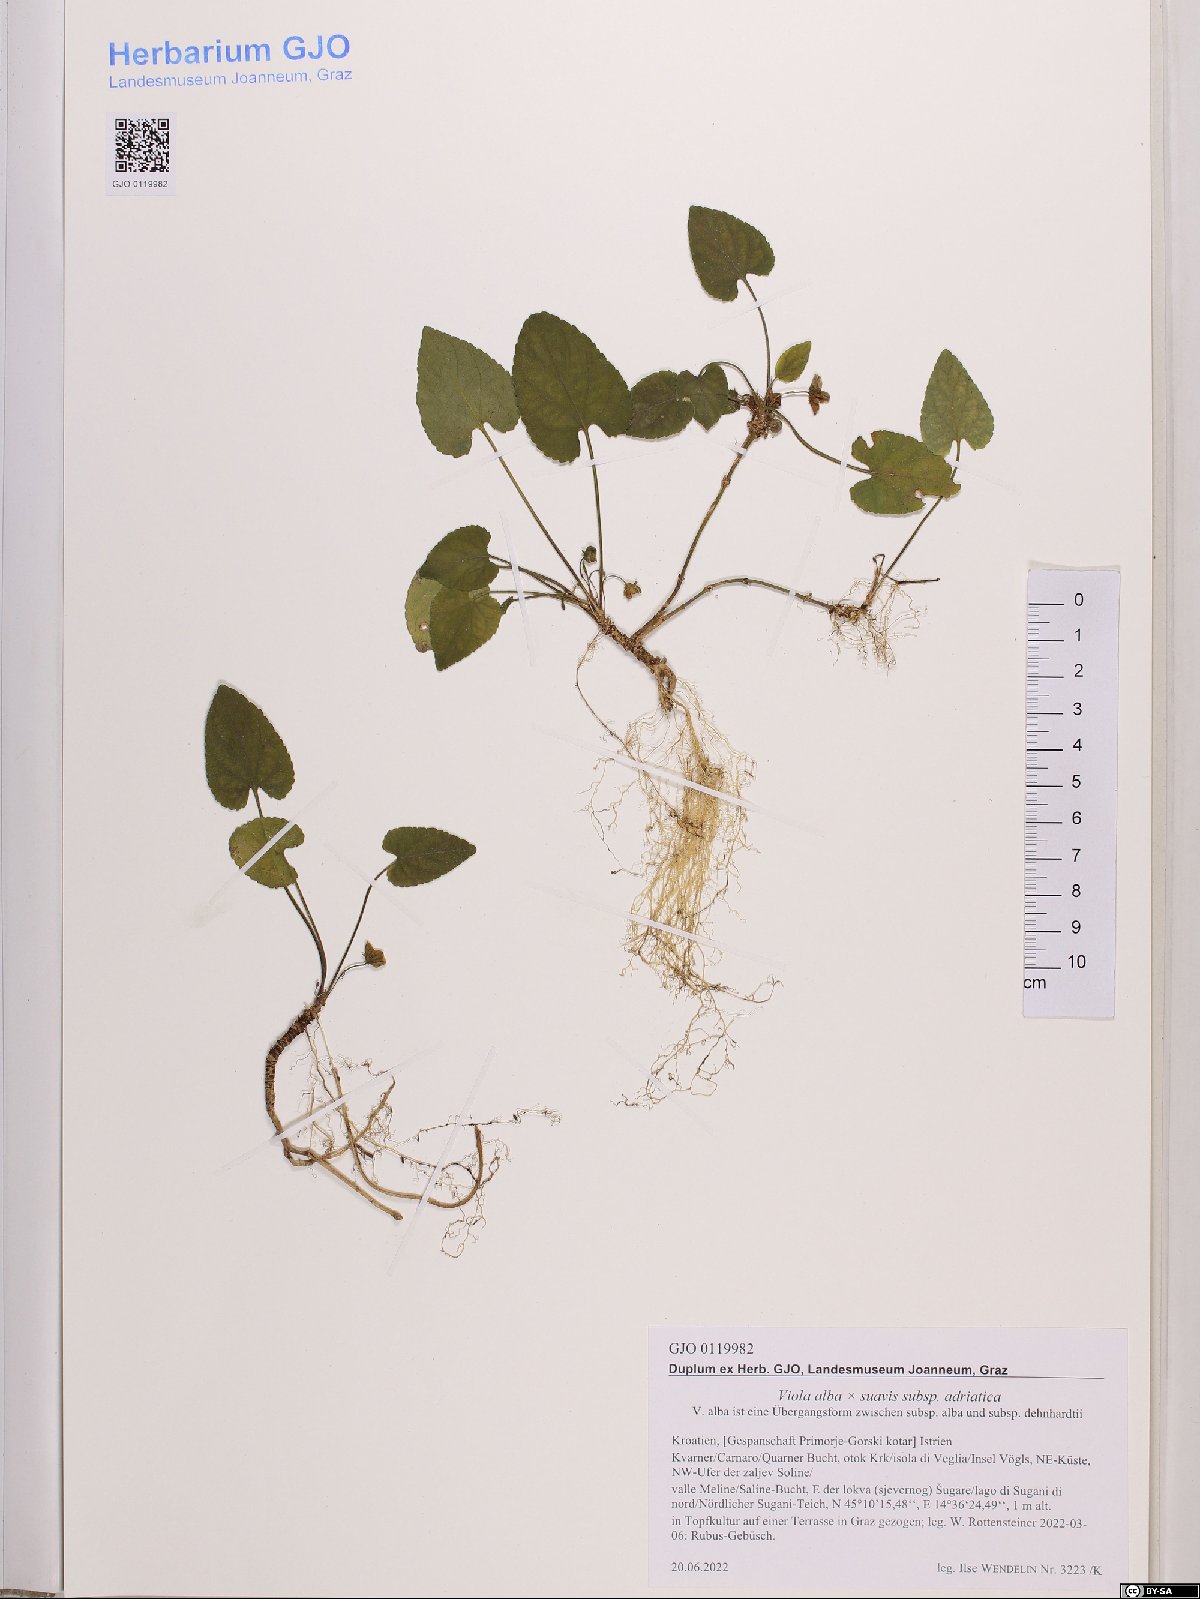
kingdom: Plantae
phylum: Tracheophyta
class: Magnoliopsida
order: Malpighiales
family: Violaceae
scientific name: Violaceae
